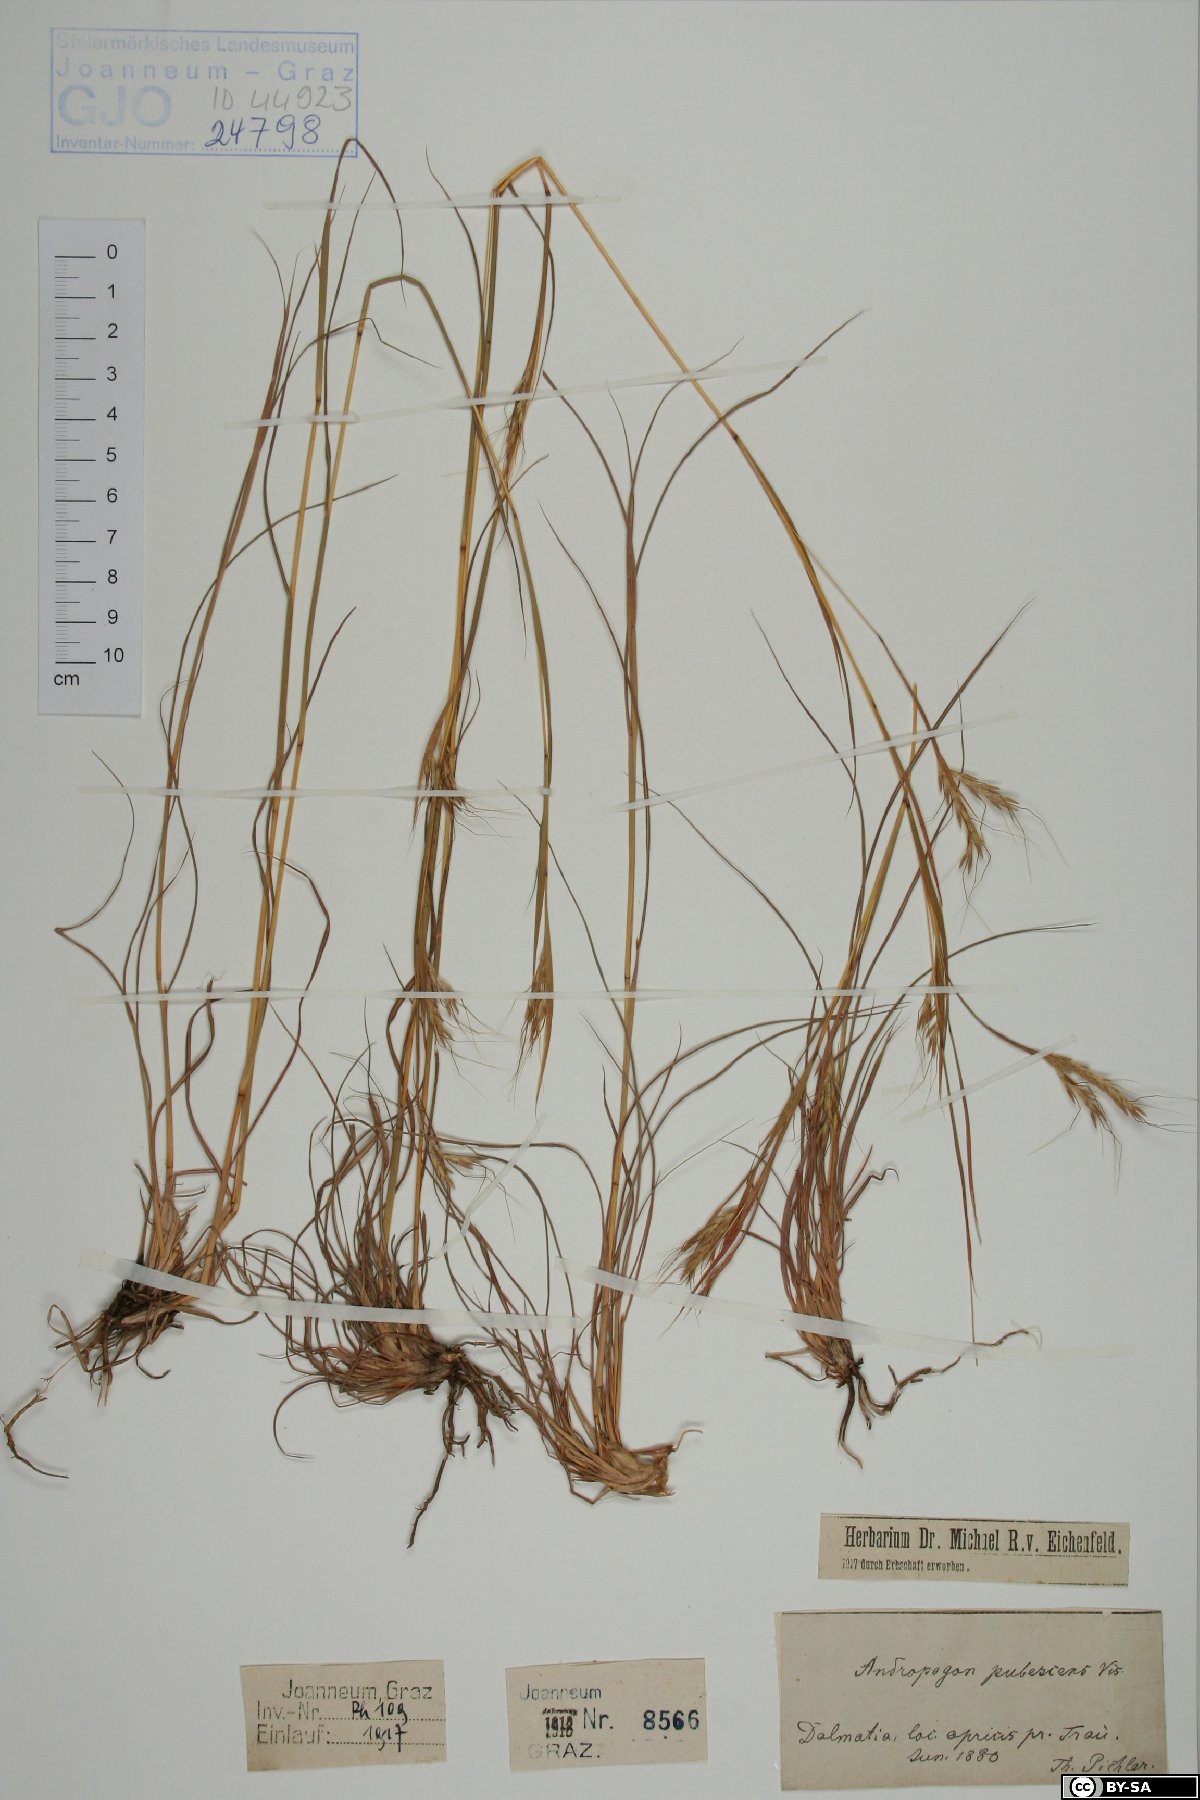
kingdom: Plantae
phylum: Tracheophyta
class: Liliopsida
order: Poales
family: Poaceae
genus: Hyparrhenia
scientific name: Hyparrhenia hirta
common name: Thatching grass
